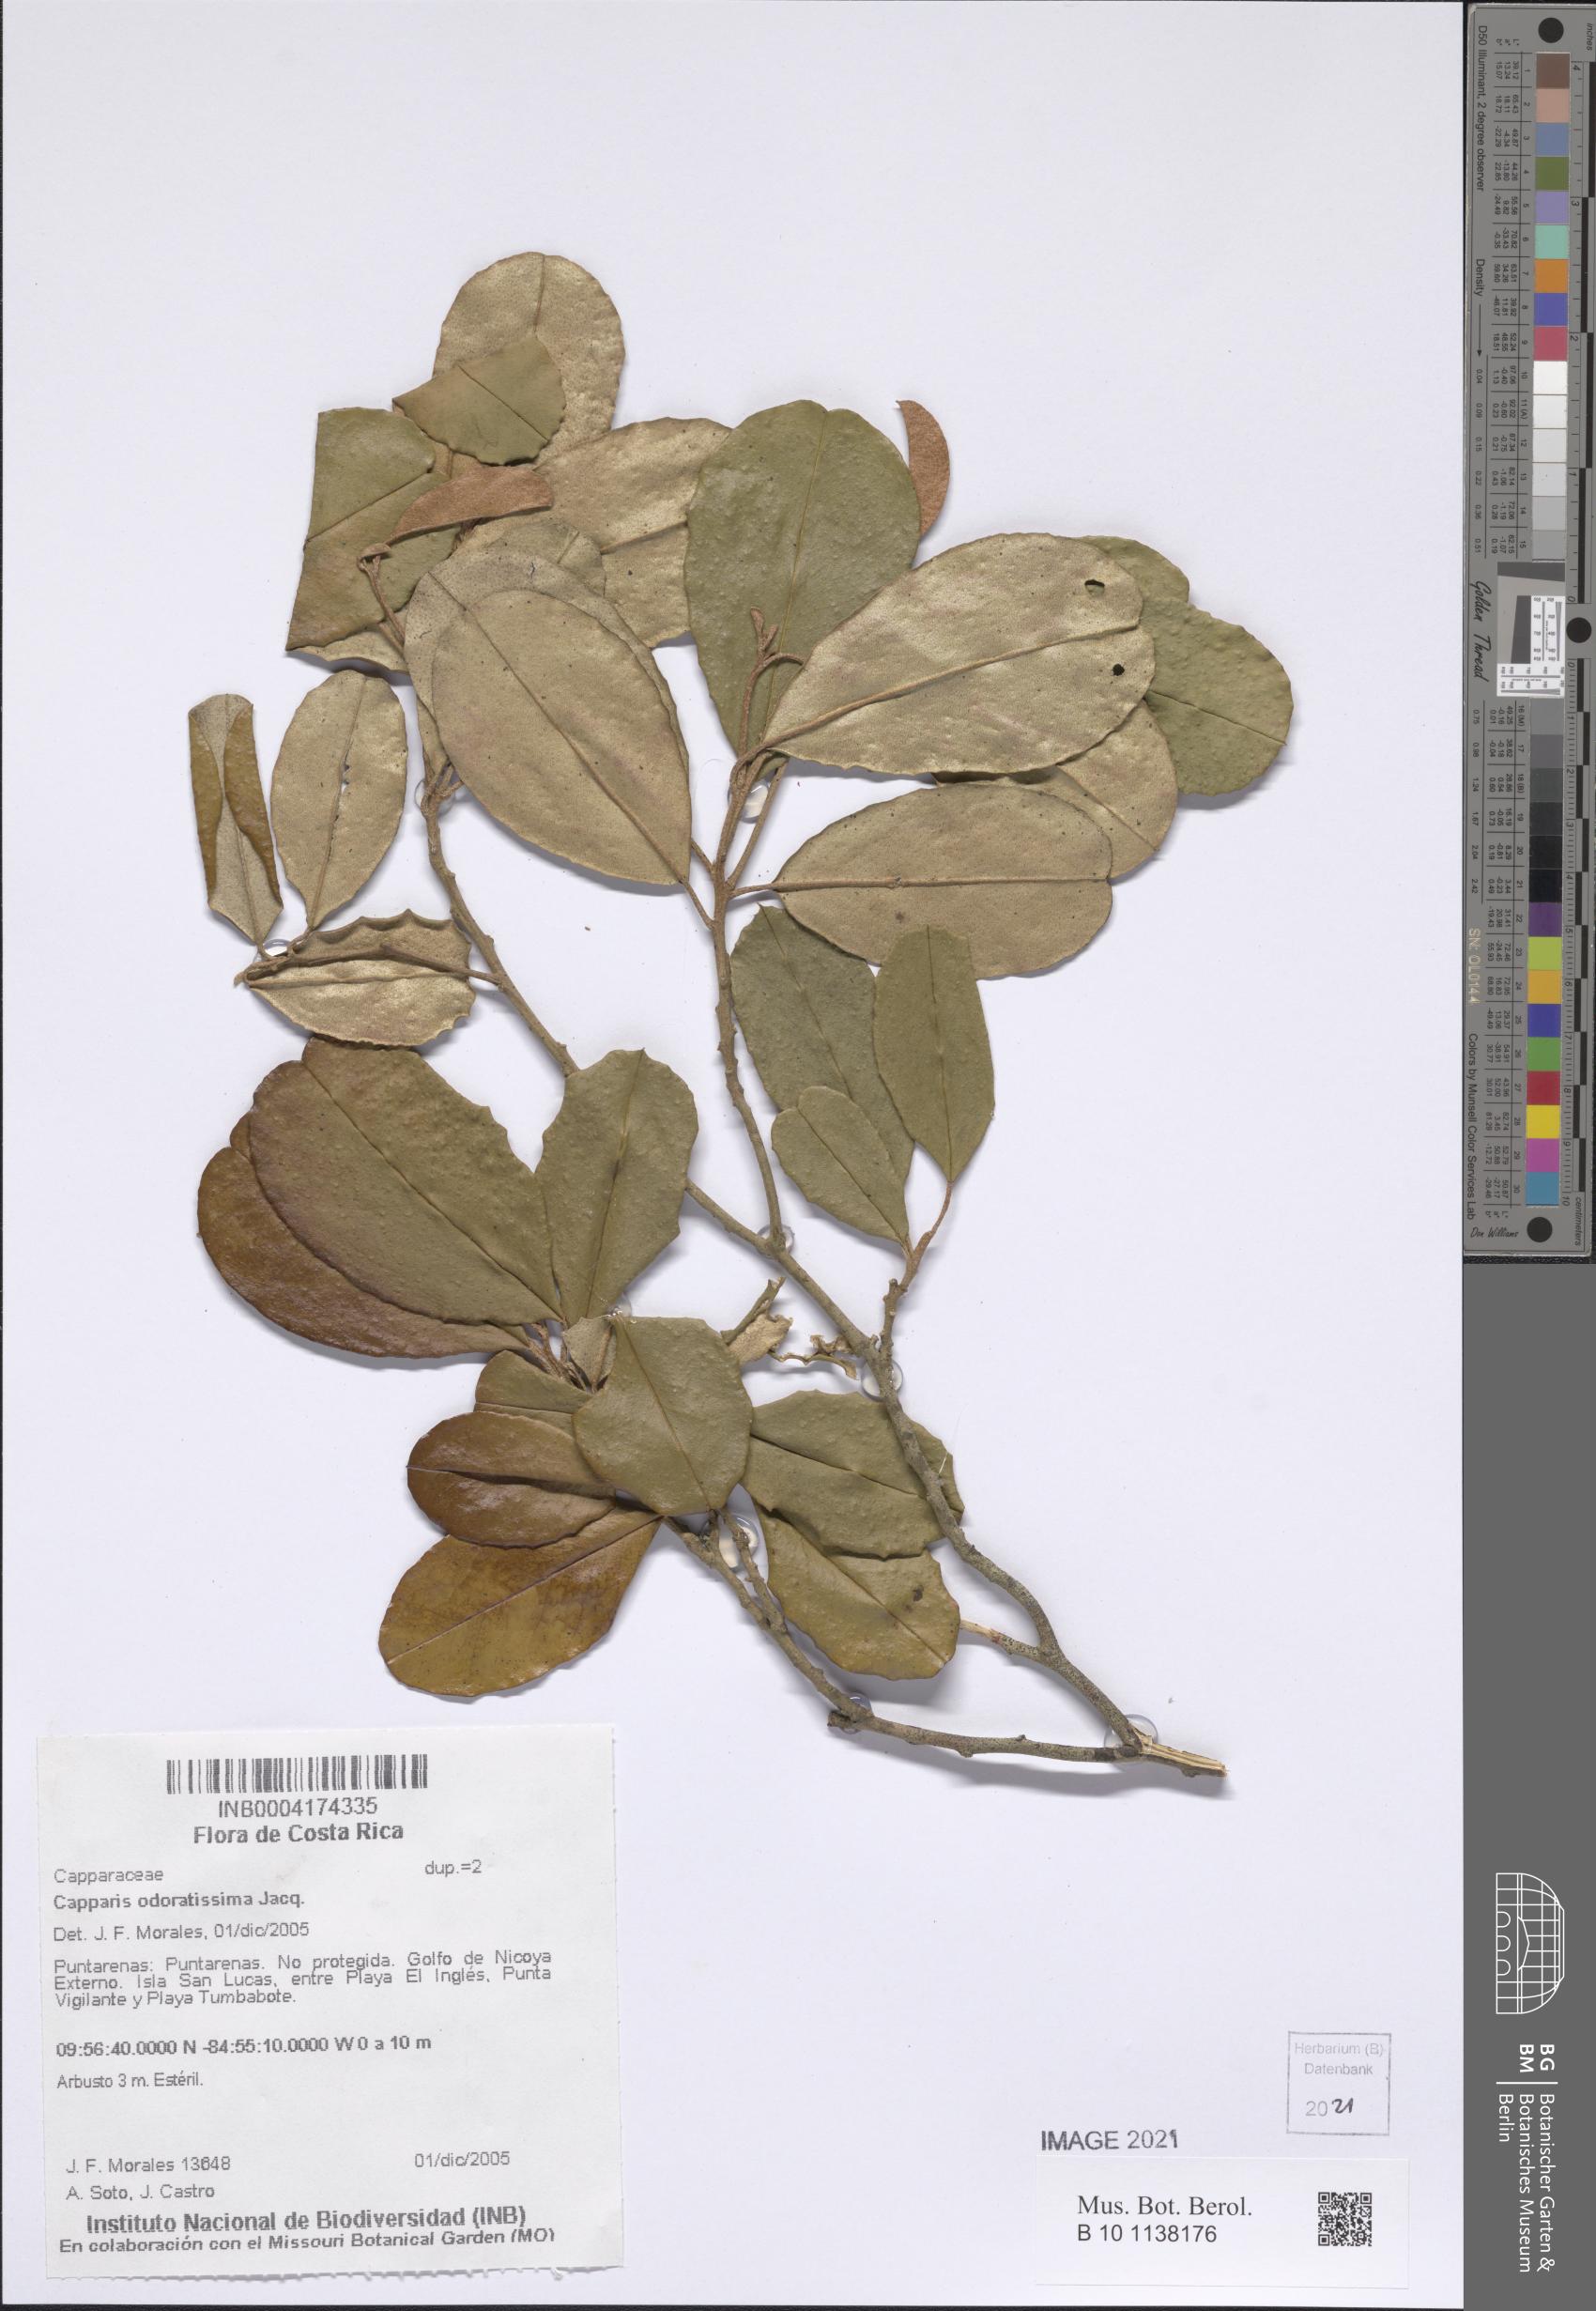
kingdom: Plantae
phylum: Tracheophyta
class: Magnoliopsida
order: Brassicales
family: Capparaceae
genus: Quadrella
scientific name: Quadrella odoratissima
